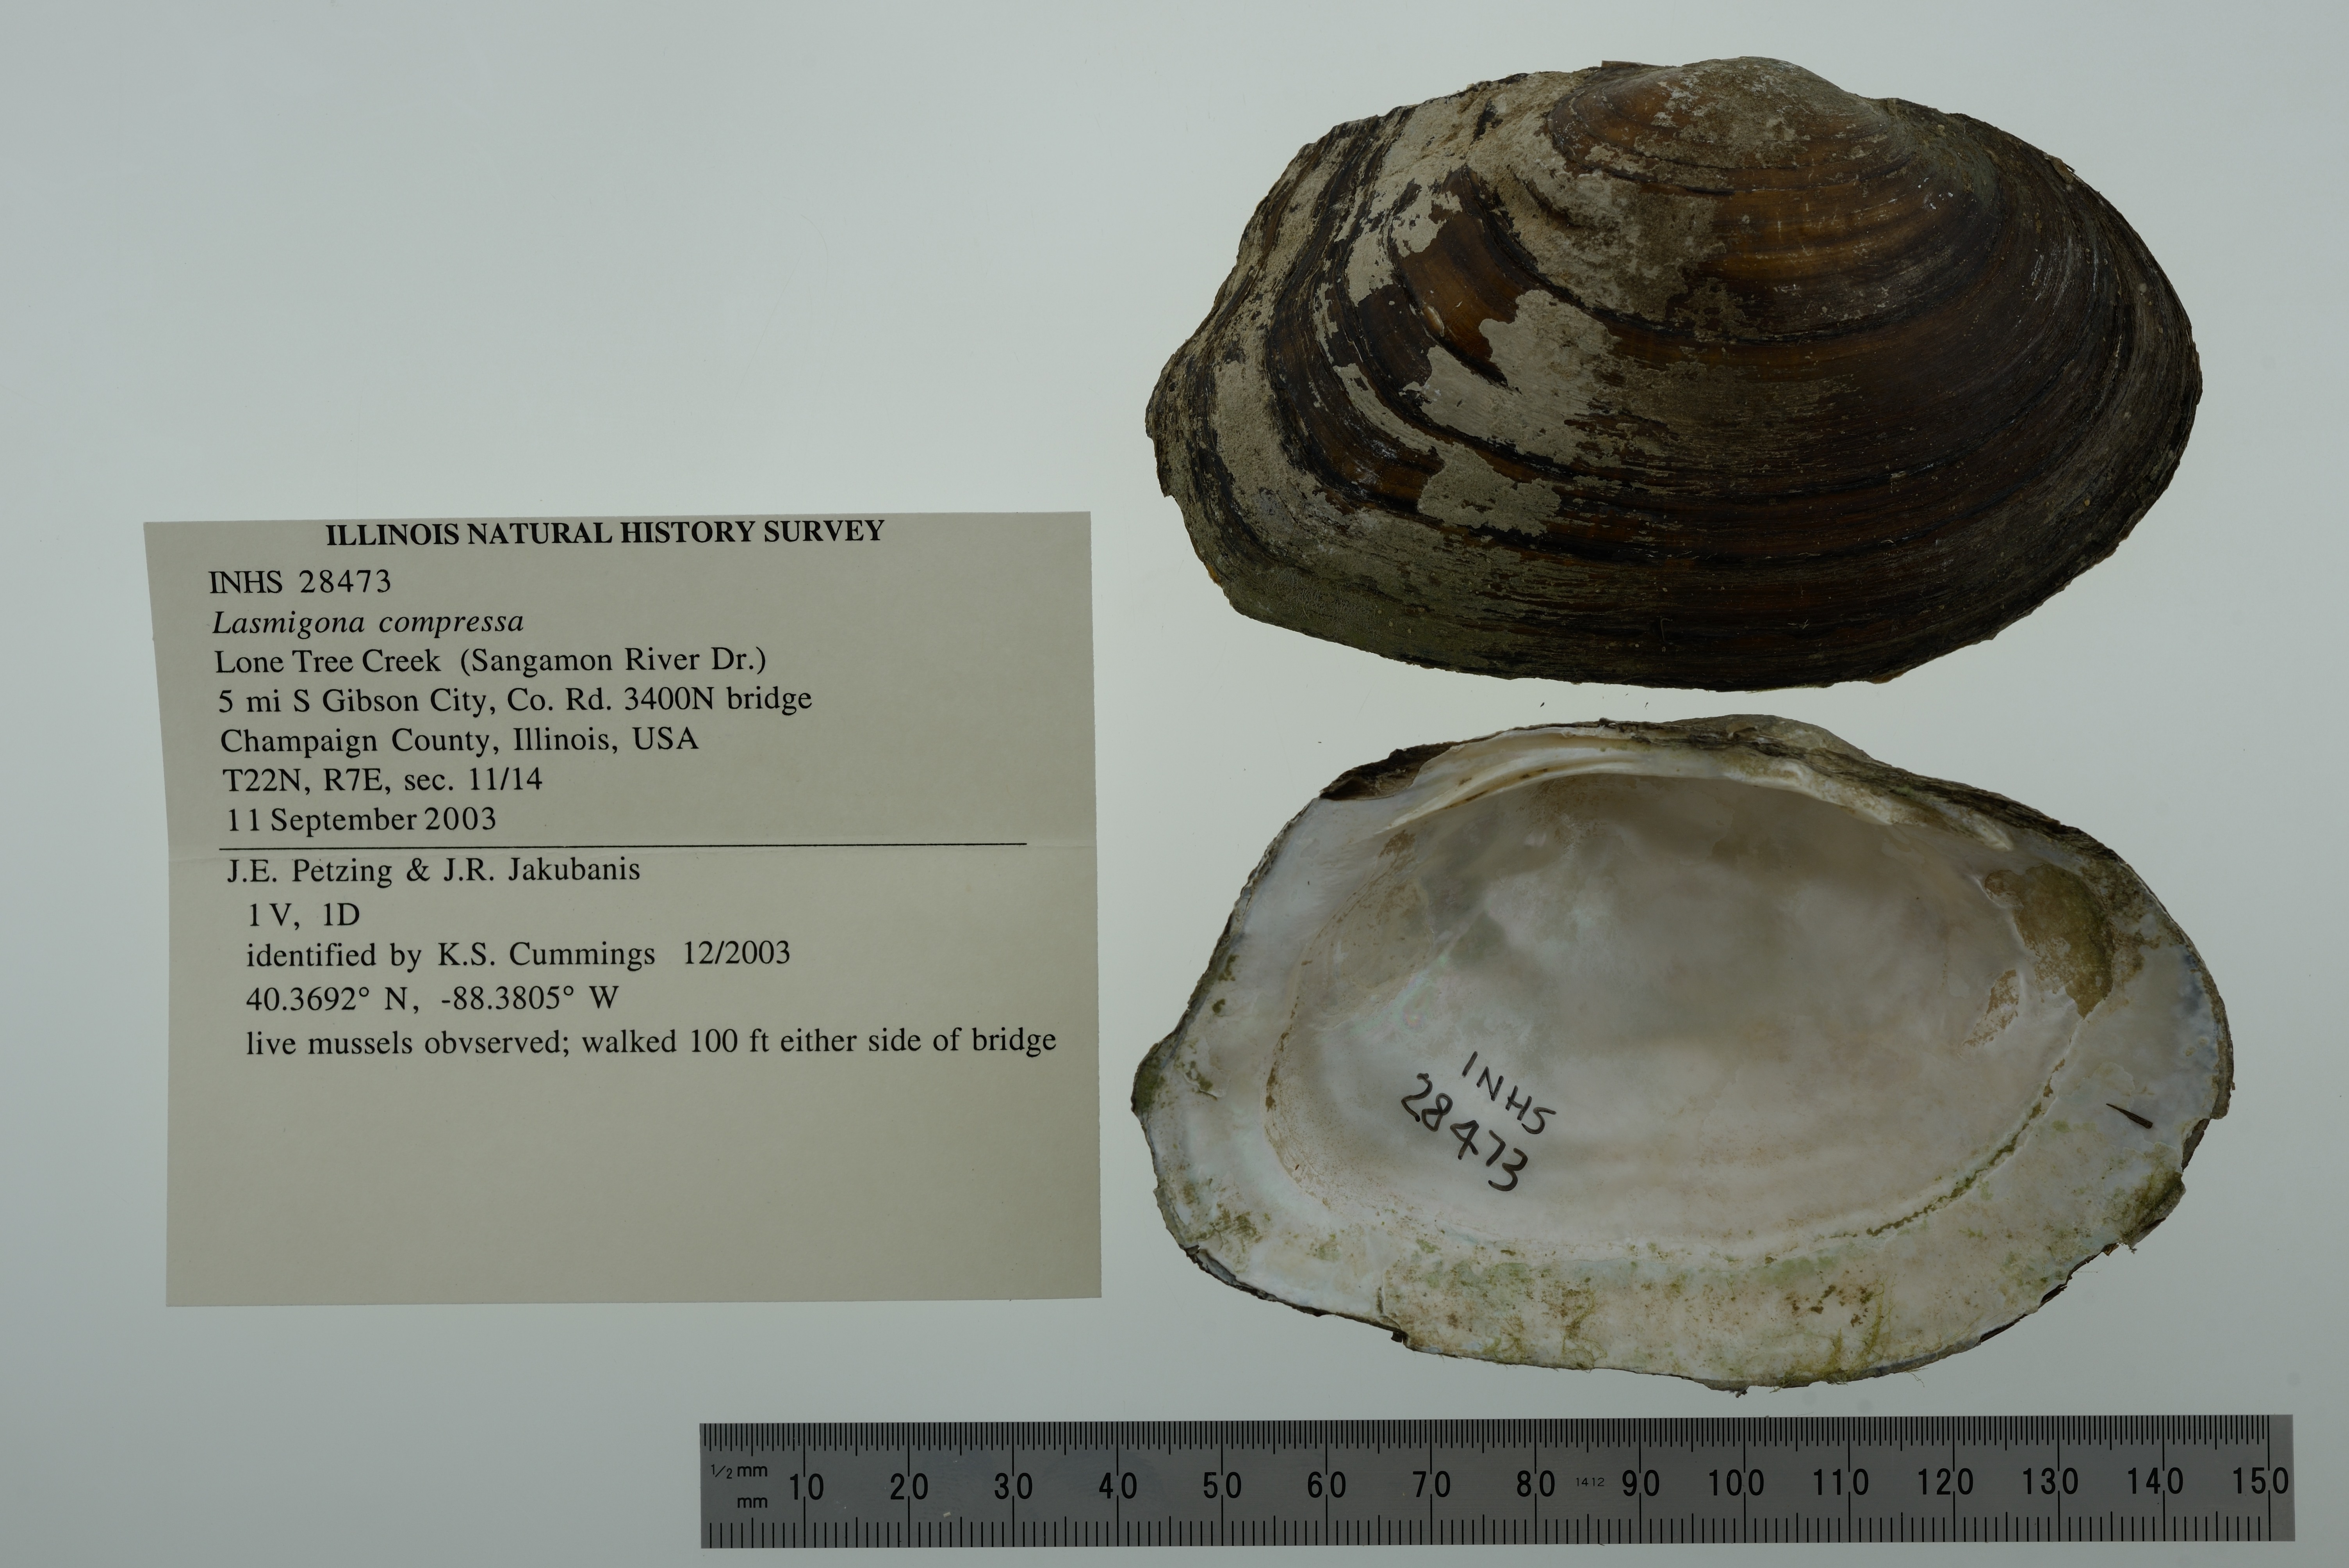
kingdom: Animalia
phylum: Mollusca
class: Bivalvia
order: Unionida
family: Unionidae
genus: Lasmigona
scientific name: Lasmigona compressa
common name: Creek heelsplitter
